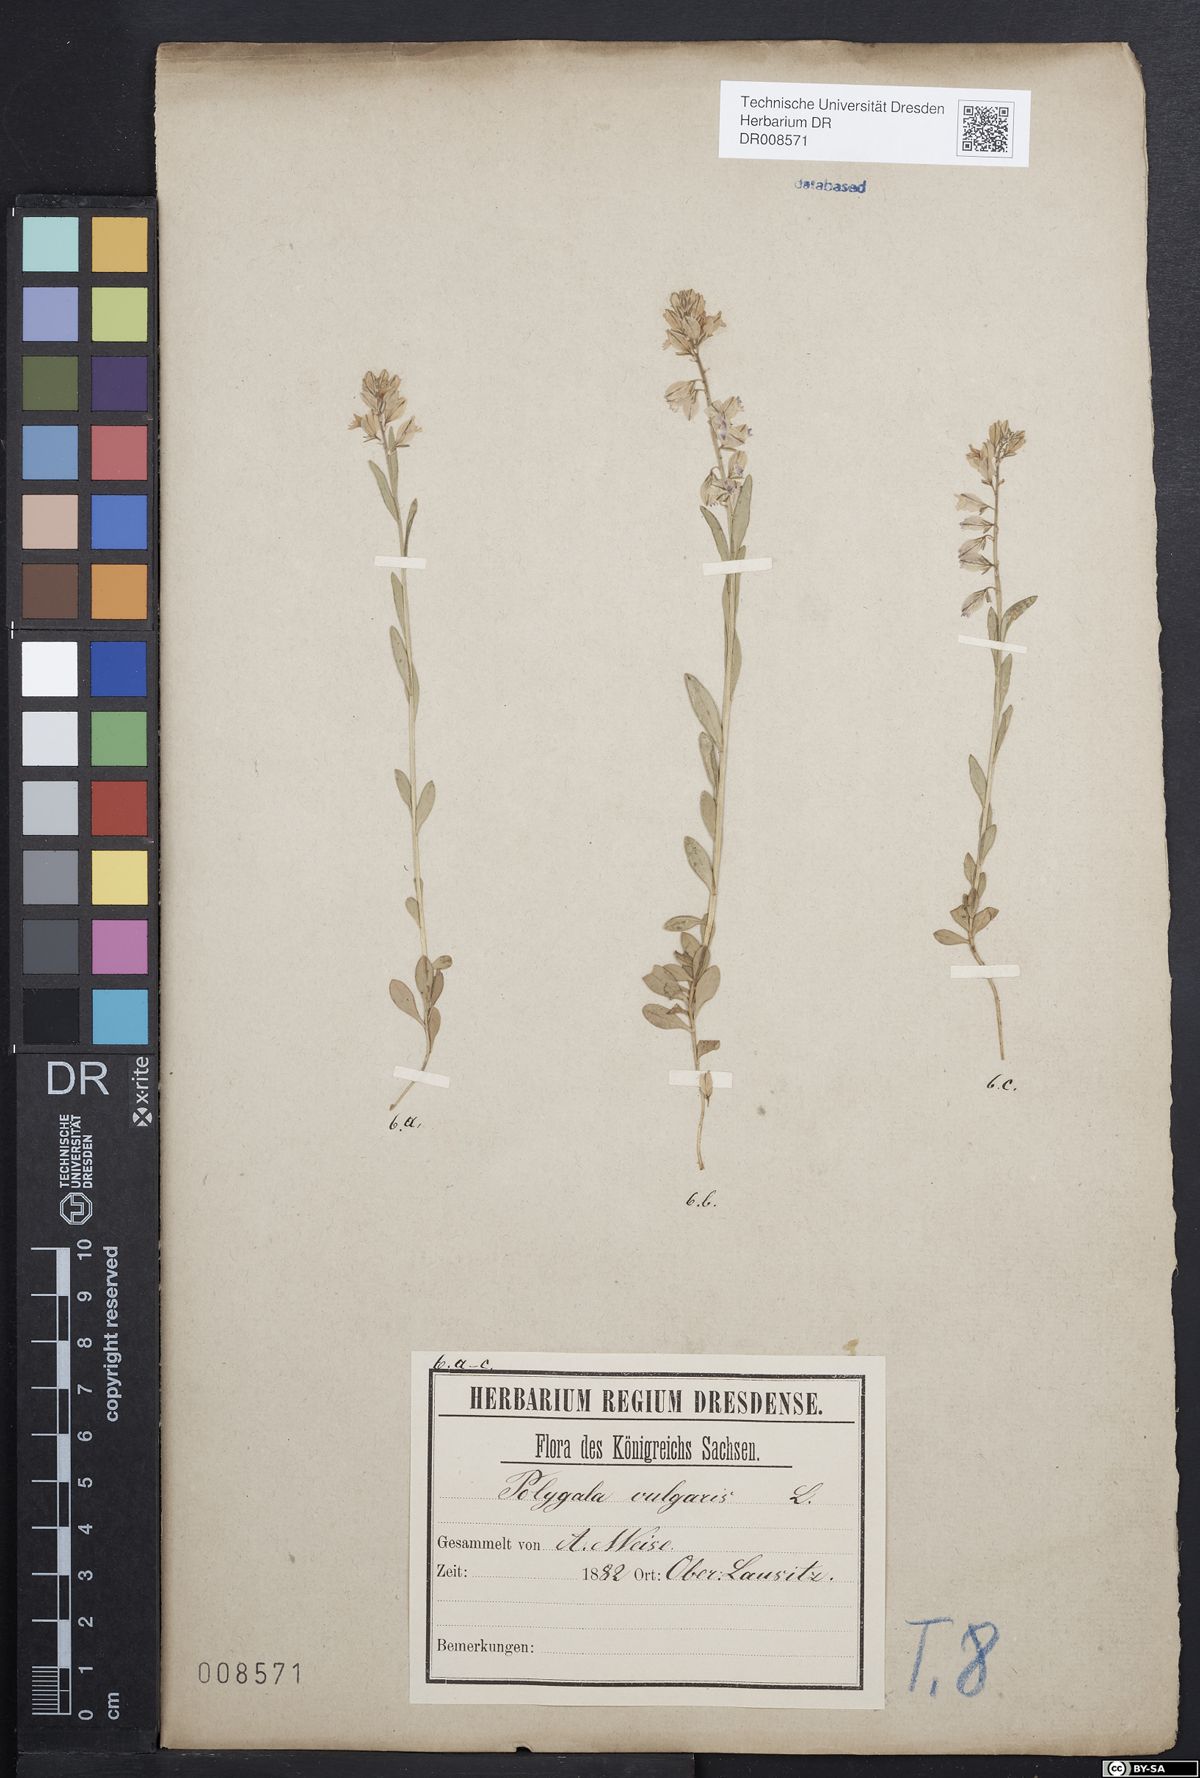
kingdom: Plantae
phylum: Tracheophyta
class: Magnoliopsida
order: Fabales
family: Polygalaceae
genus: Polygala
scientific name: Polygala vulgaris
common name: Common milkwort
